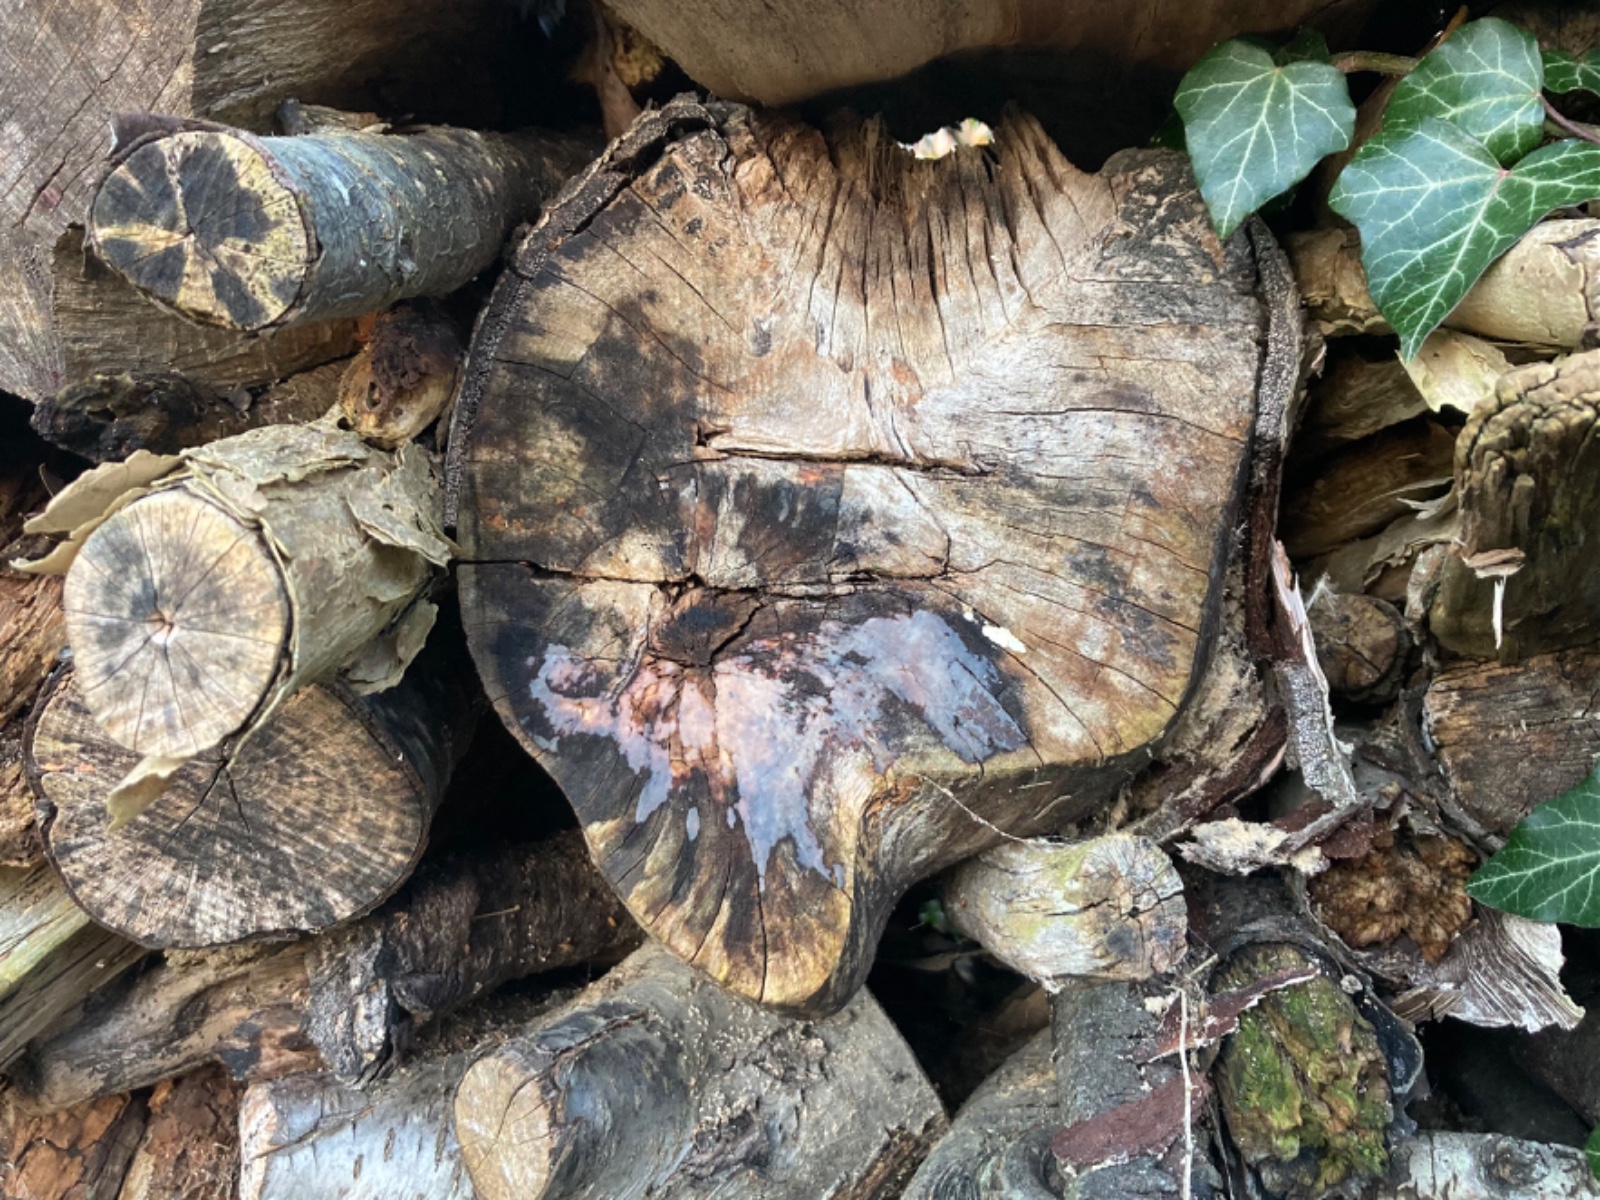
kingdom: Fungi
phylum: Basidiomycota
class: Agaricomycetes
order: Agaricales
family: Radulomycetaceae
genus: Radulomyces
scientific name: Radulomyces confluens
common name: glat naftalinskind
